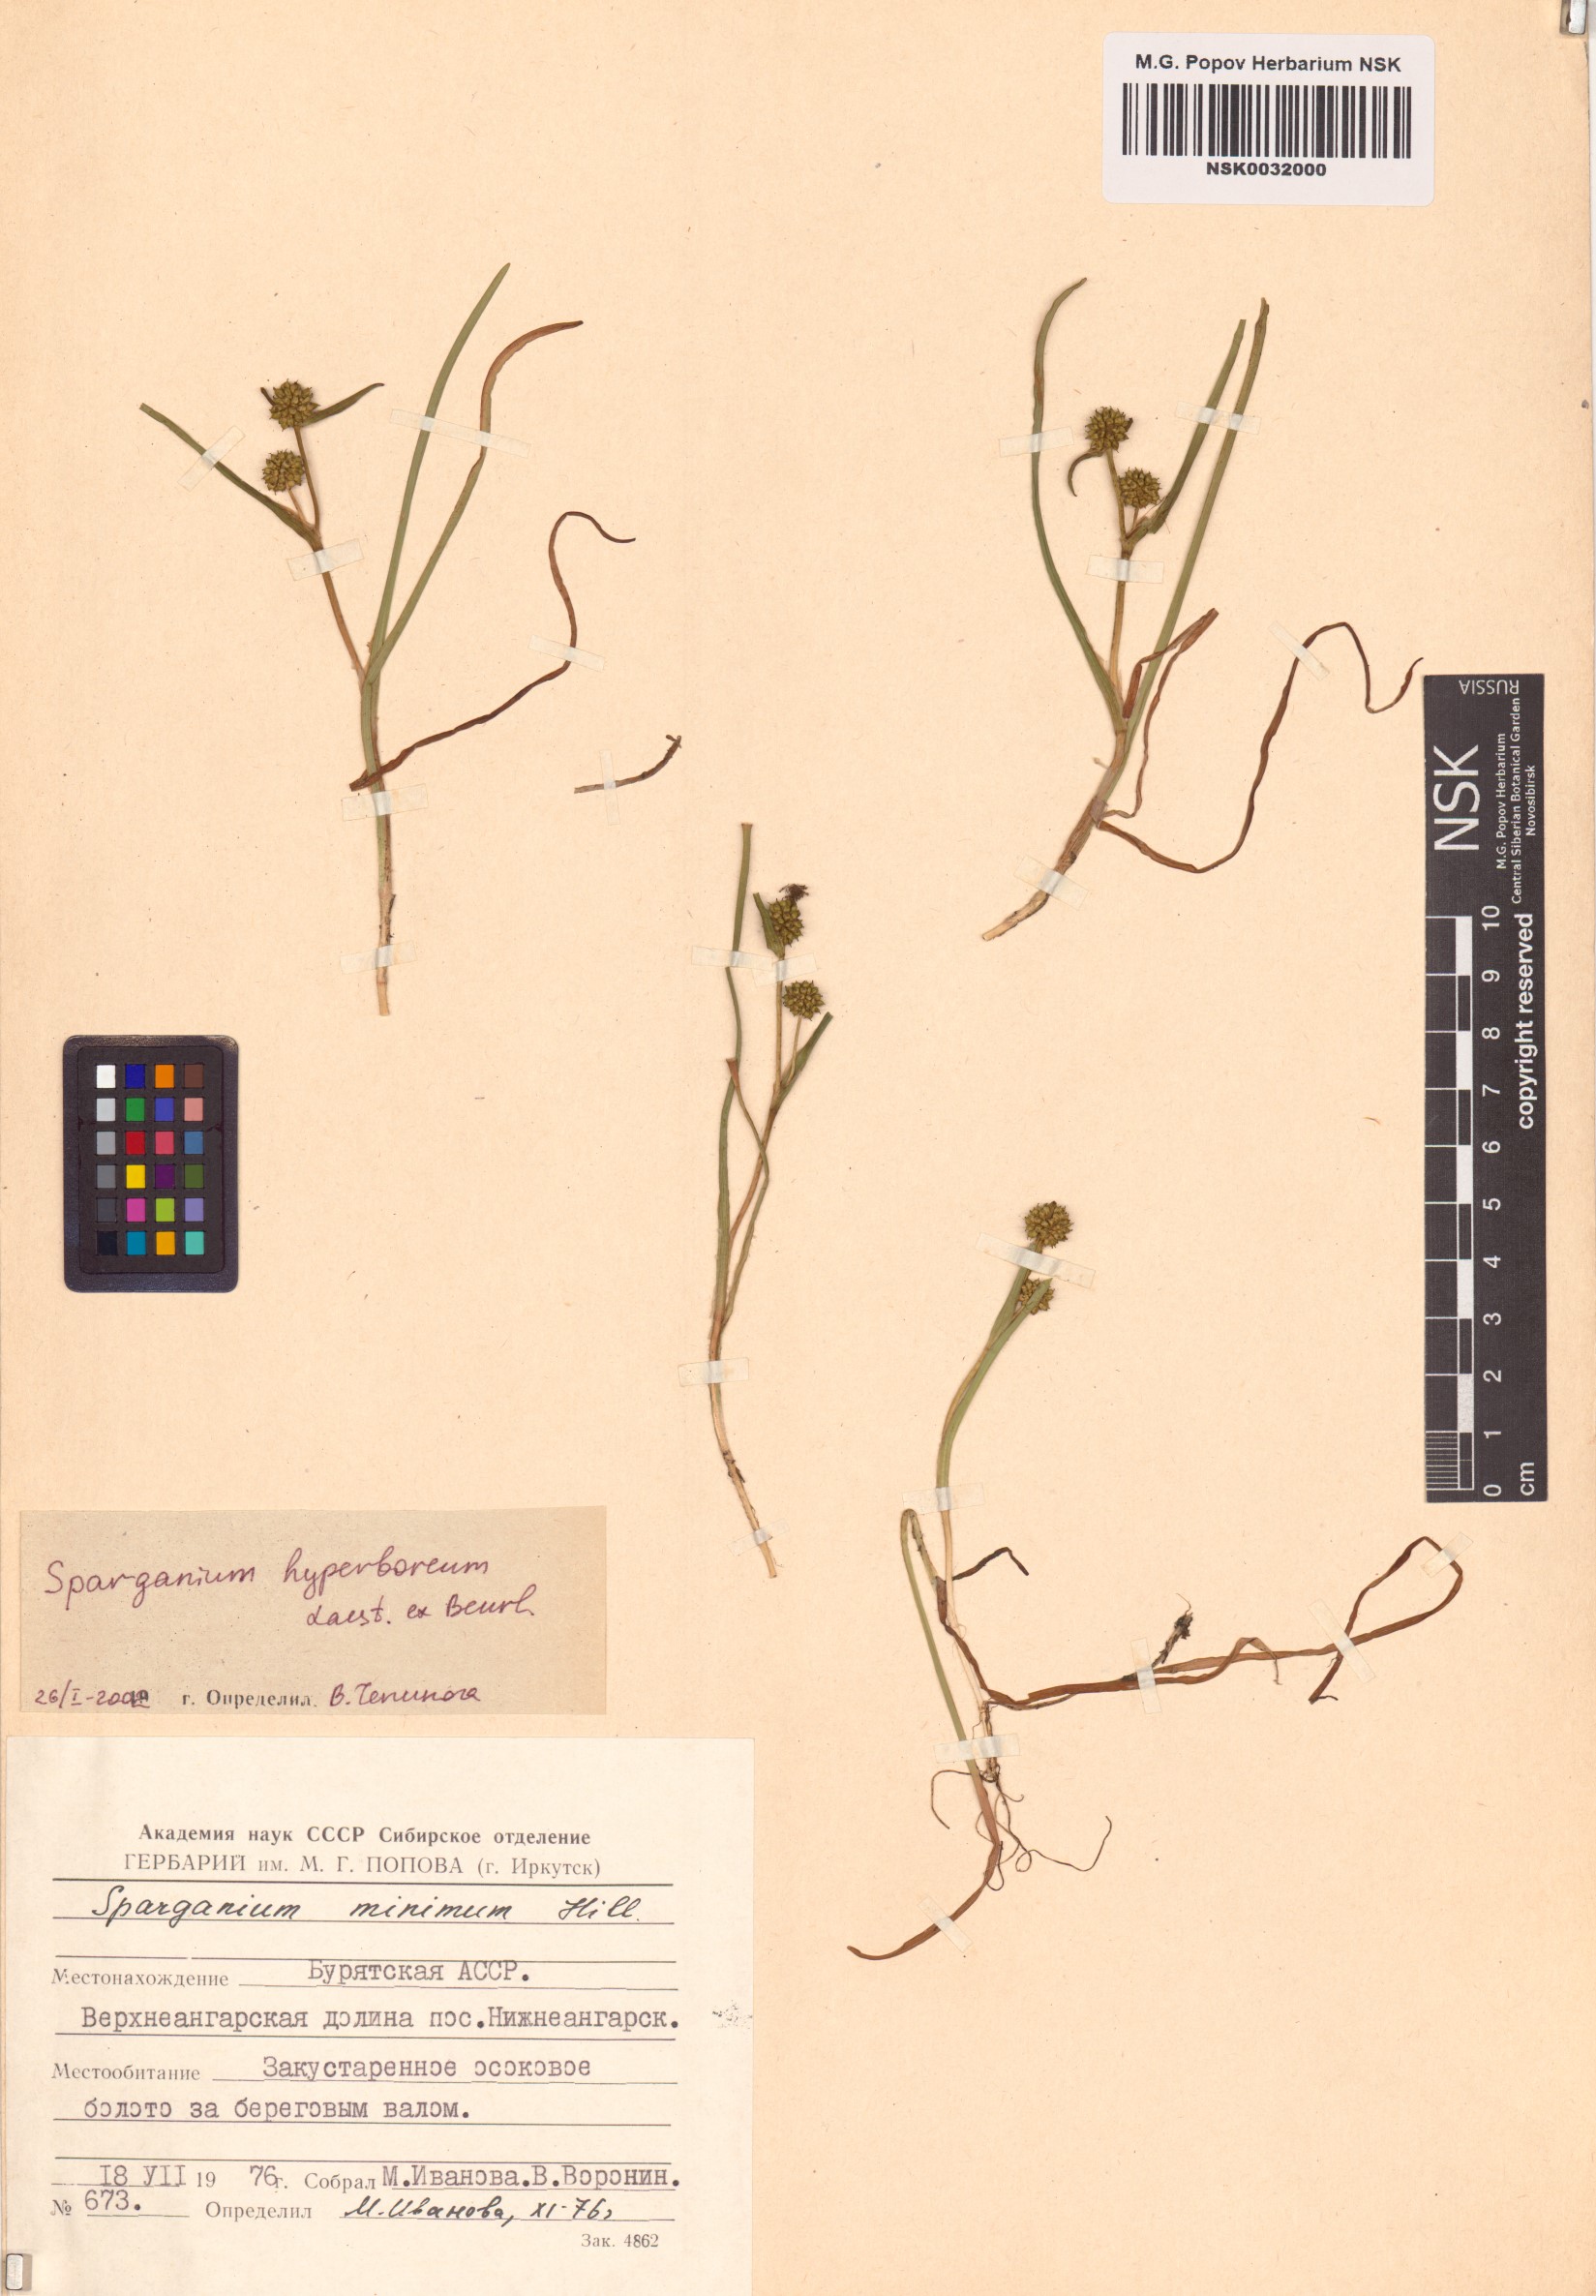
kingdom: Plantae
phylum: Tracheophyta
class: Liliopsida
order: Poales
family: Typhaceae
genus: Sparganium
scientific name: Sparganium hyperboreum
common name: Arctic burreed
